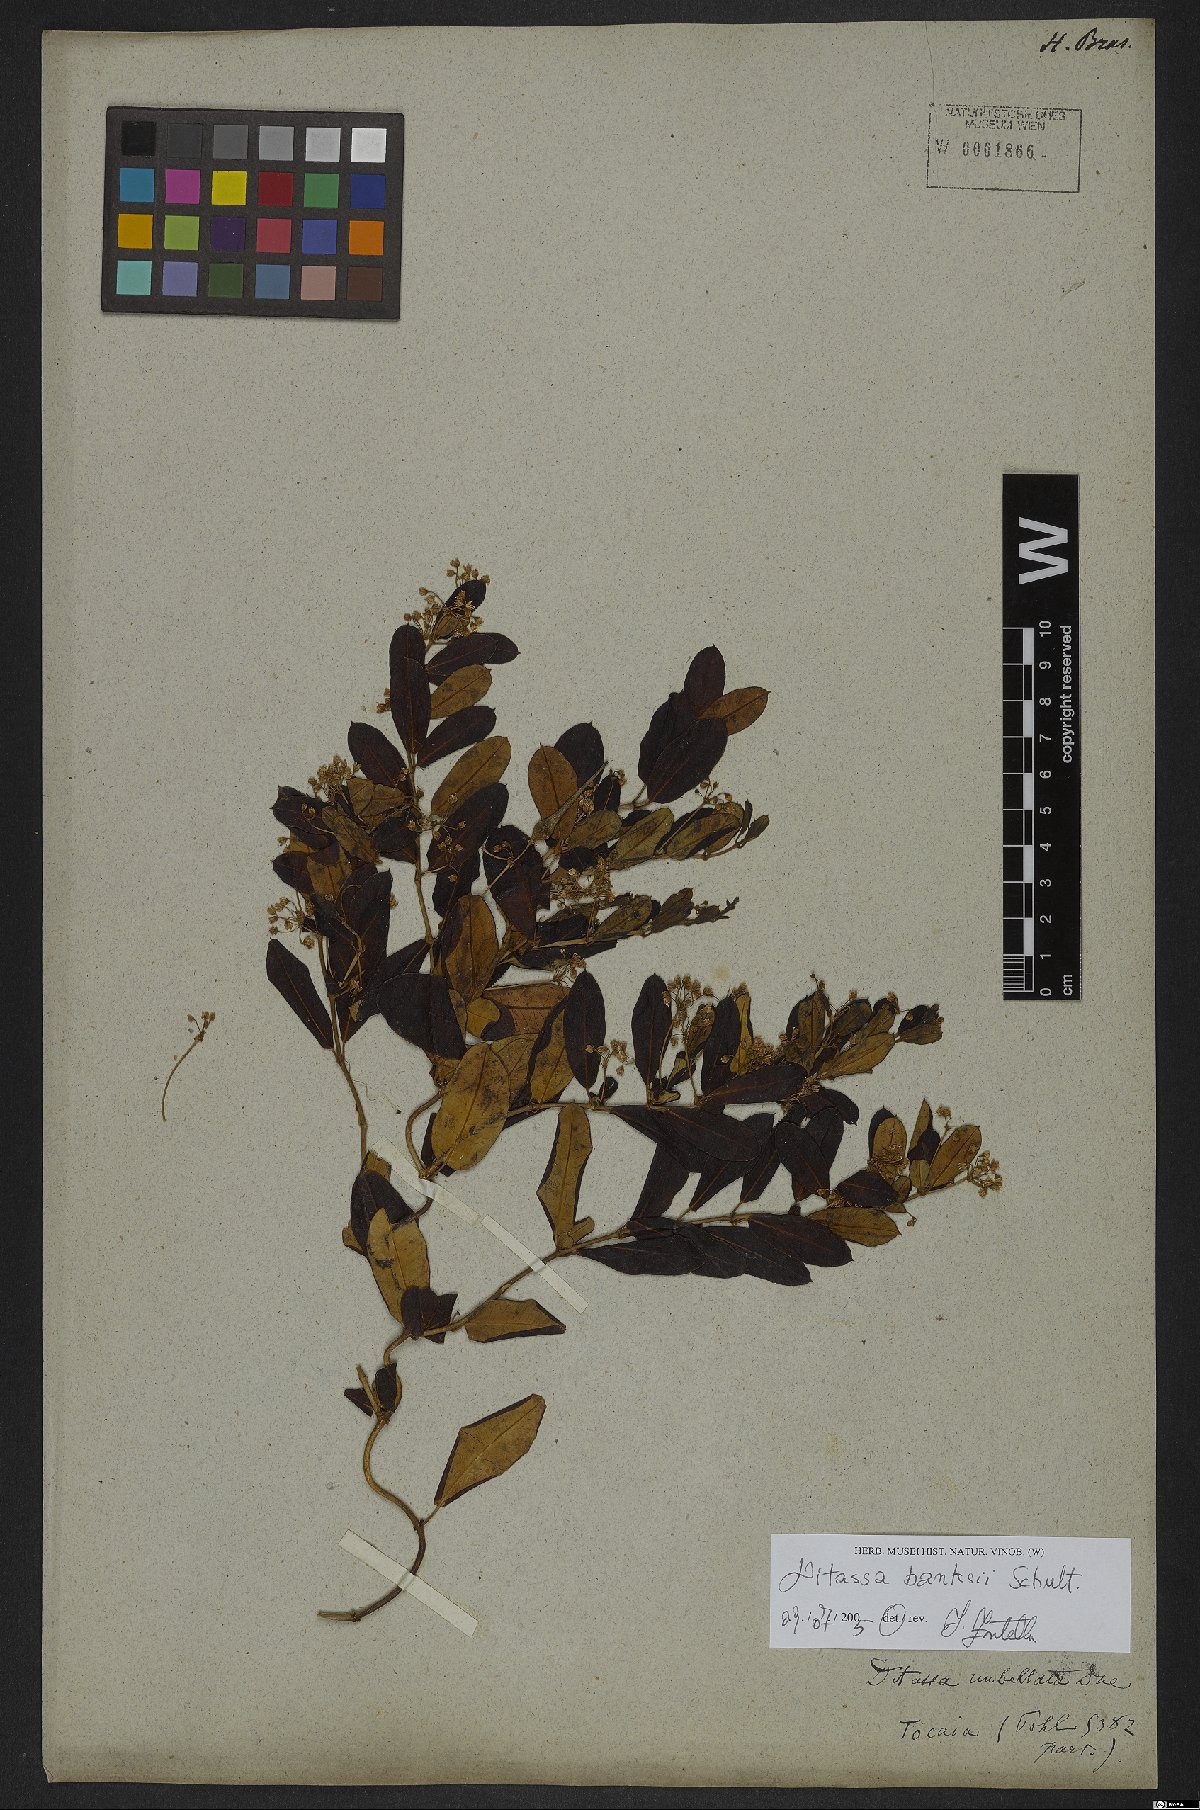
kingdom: Plantae
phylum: Tracheophyta
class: Magnoliopsida
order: Gentianales
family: Apocynaceae
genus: Ditassa
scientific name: Ditassa banksii
